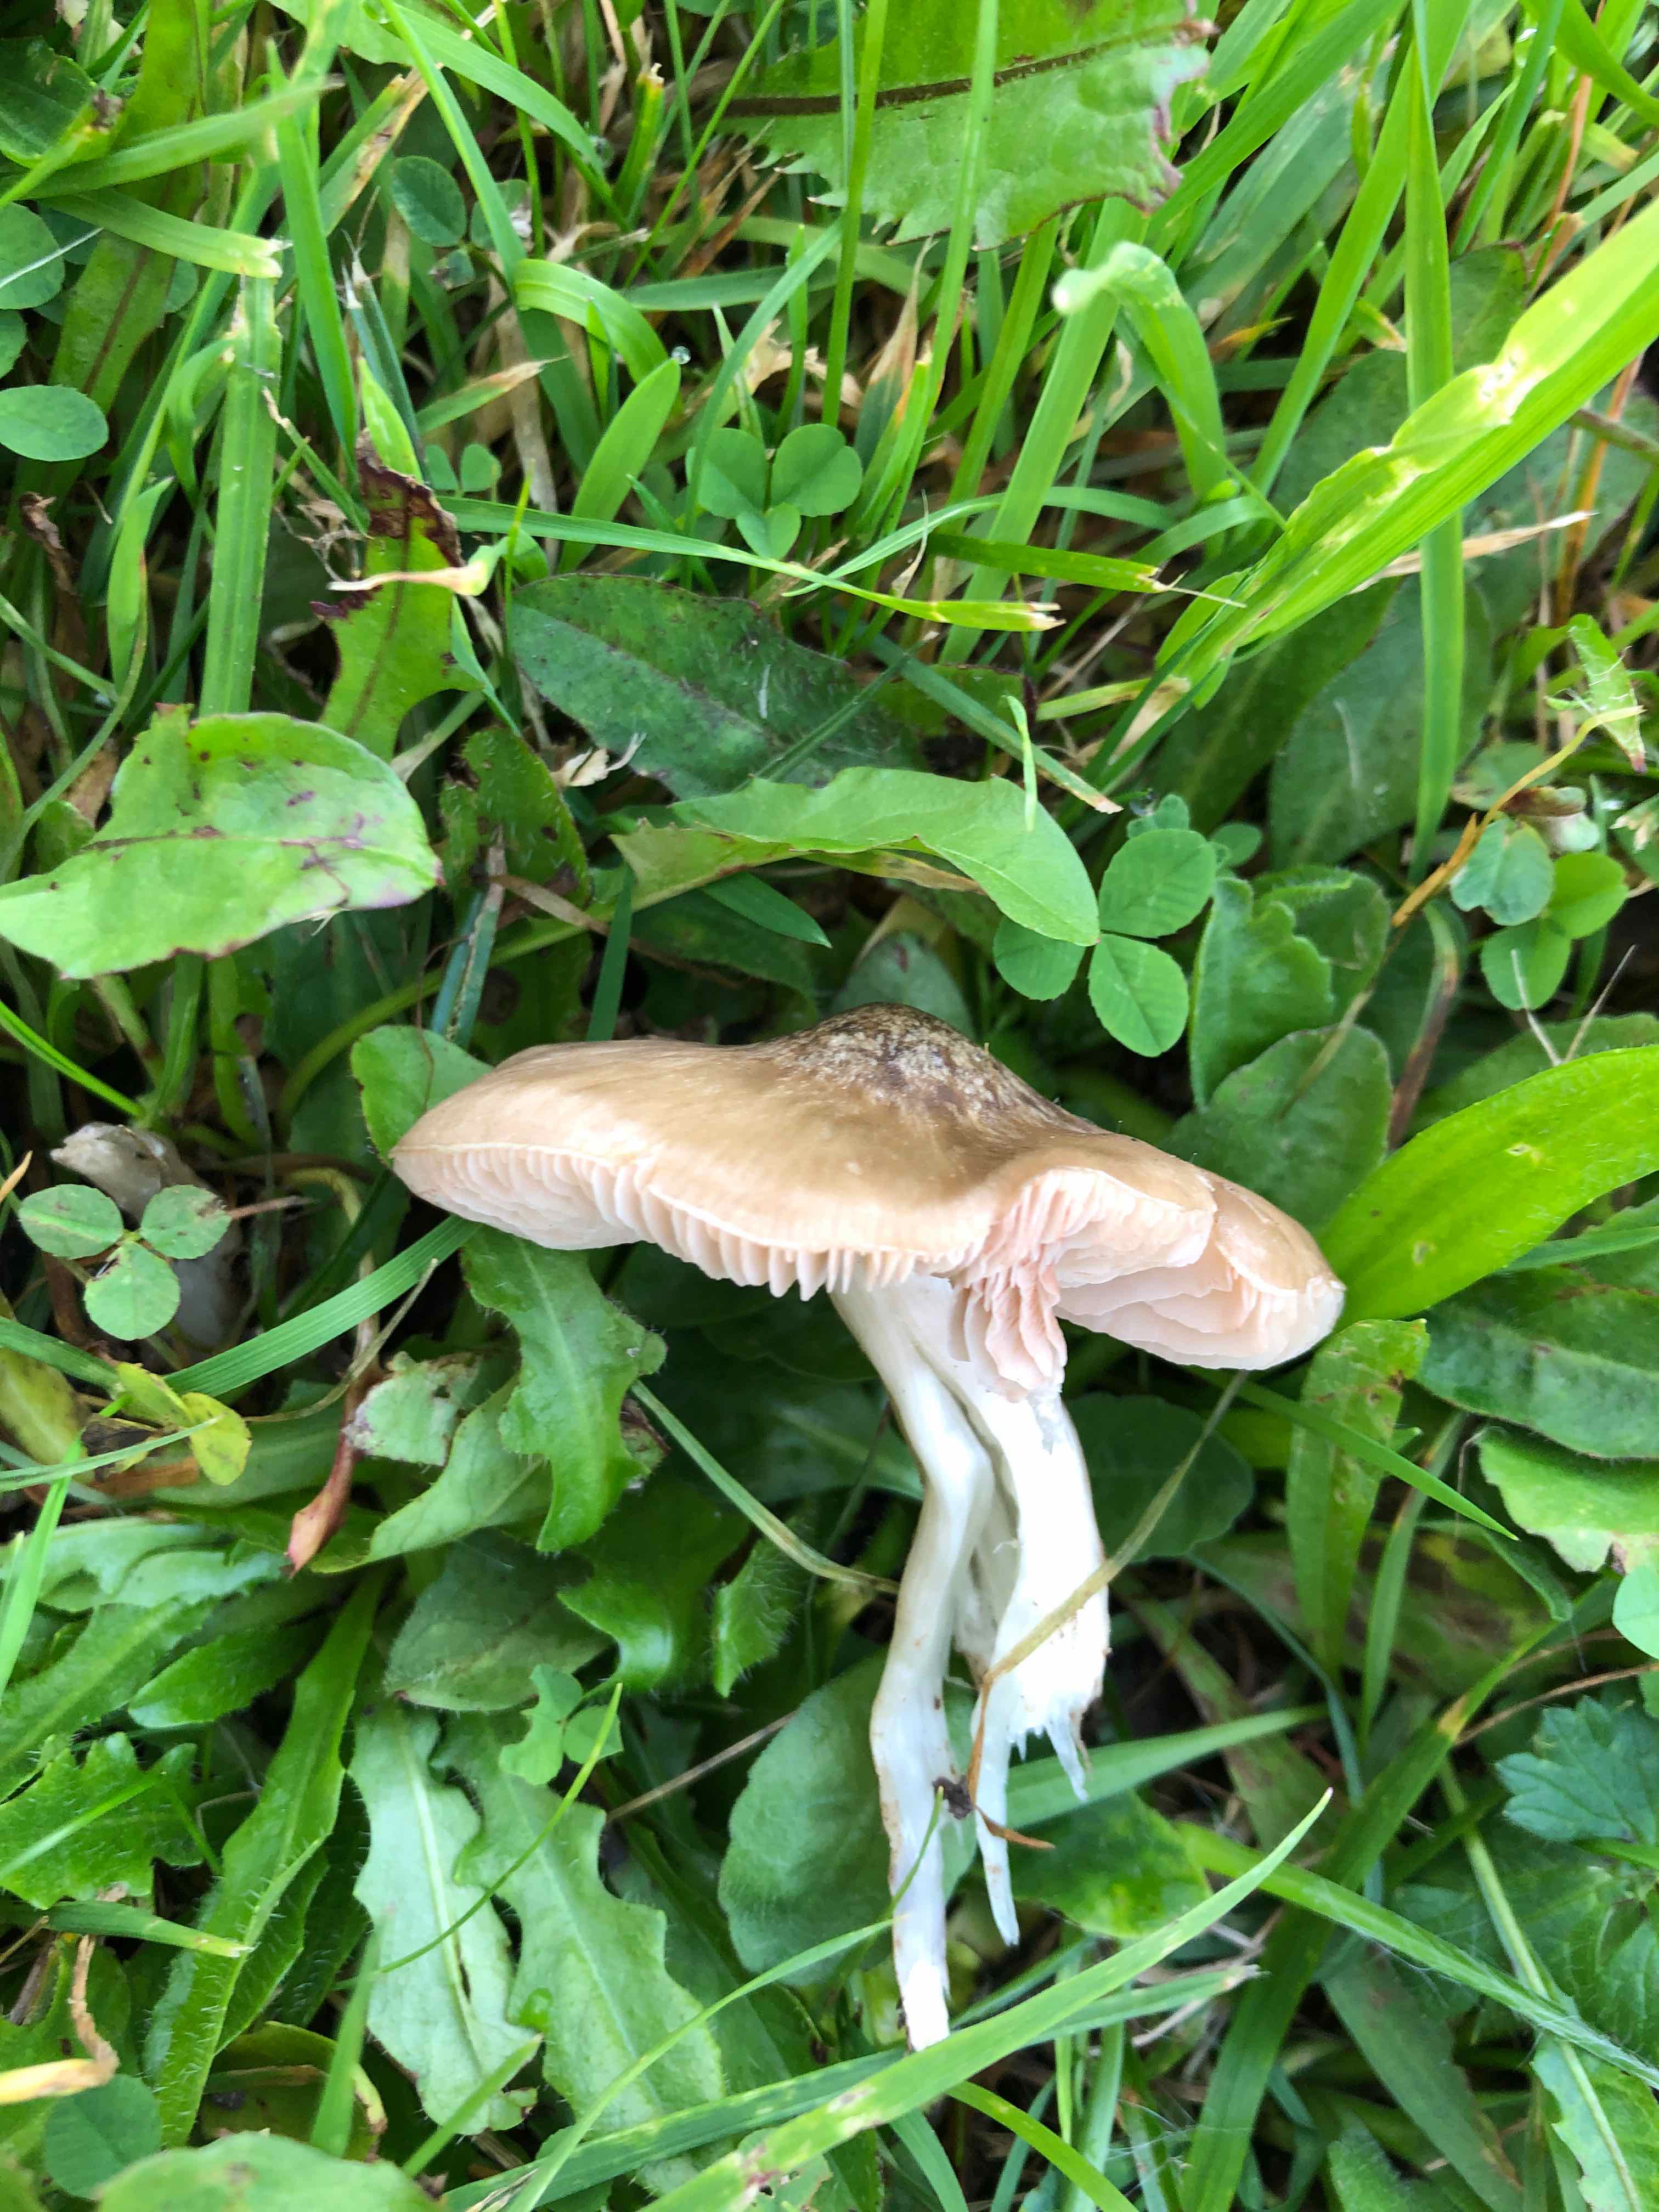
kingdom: Fungi
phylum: Basidiomycota
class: Agaricomycetes
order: Agaricales
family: Entolomataceae
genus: Entoloma
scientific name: Entoloma prunuloides
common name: mel-rødblad
